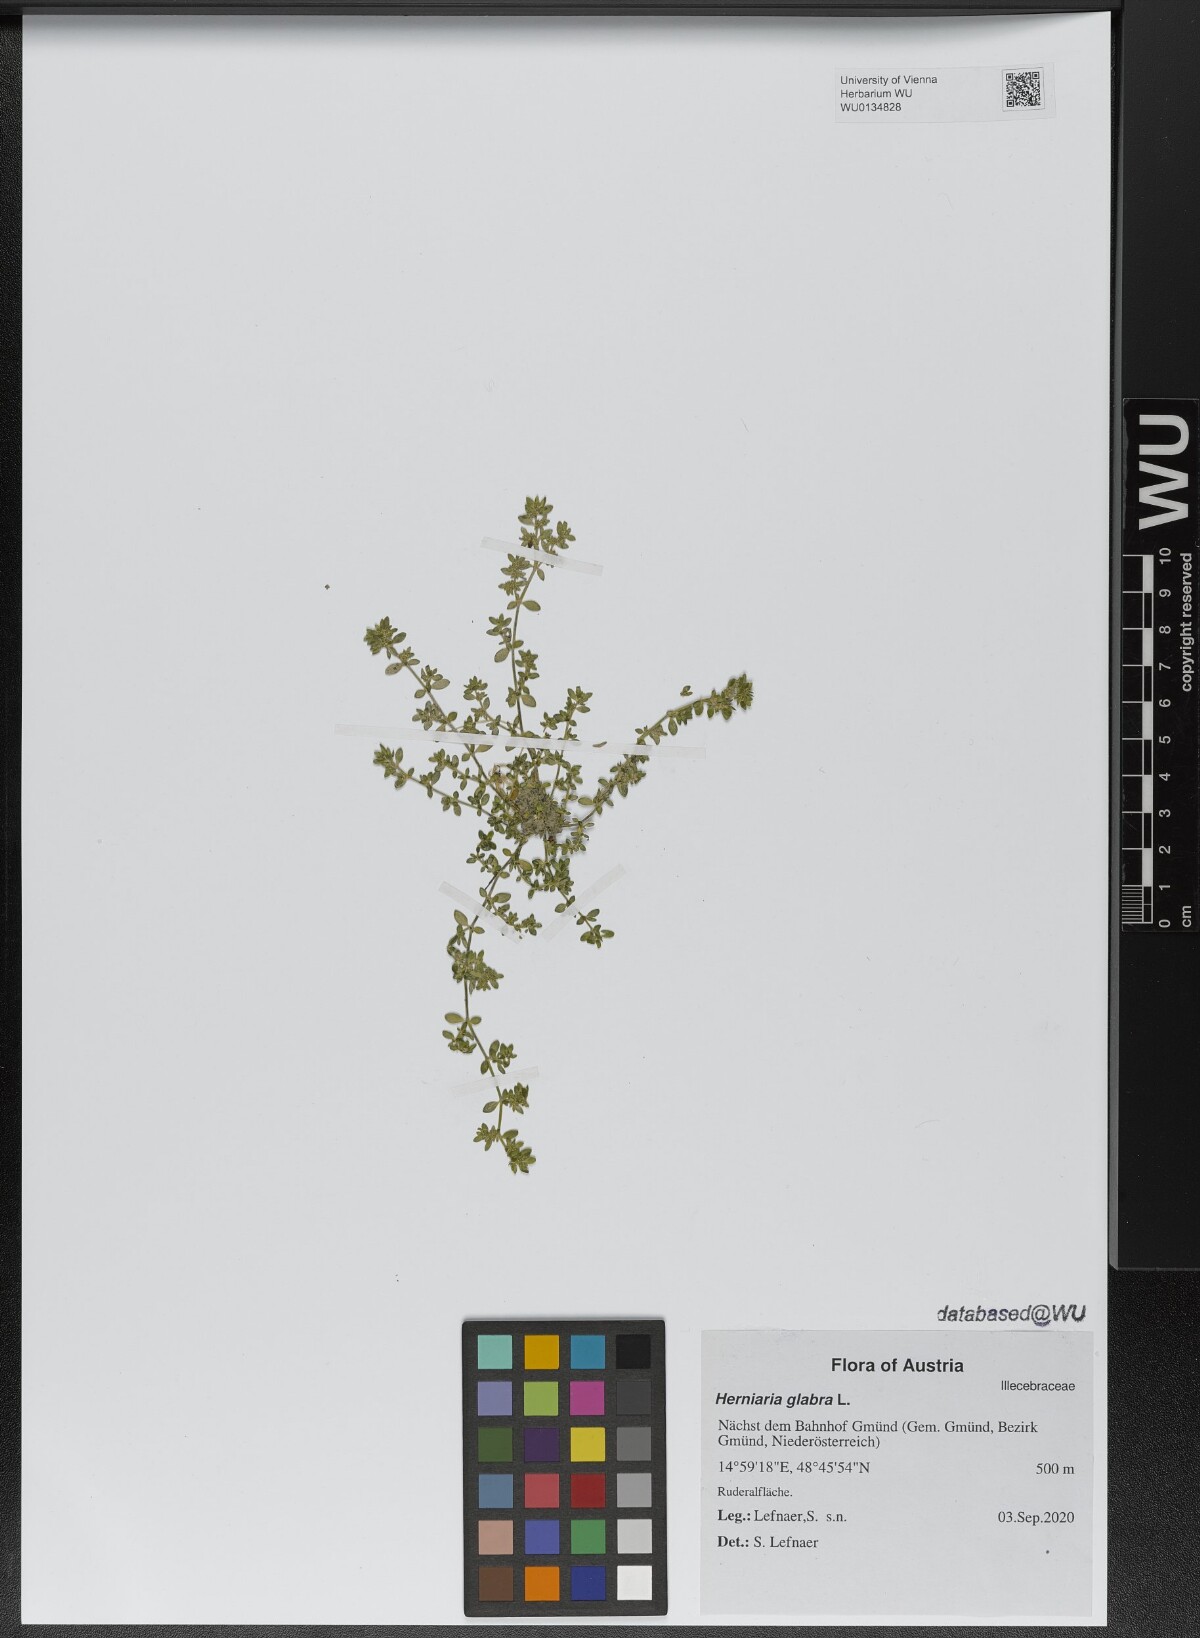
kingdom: Plantae
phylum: Tracheophyta
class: Magnoliopsida
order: Caryophyllales
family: Caryophyllaceae
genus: Herniaria
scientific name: Herniaria glabra
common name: Smooth rupturewort
